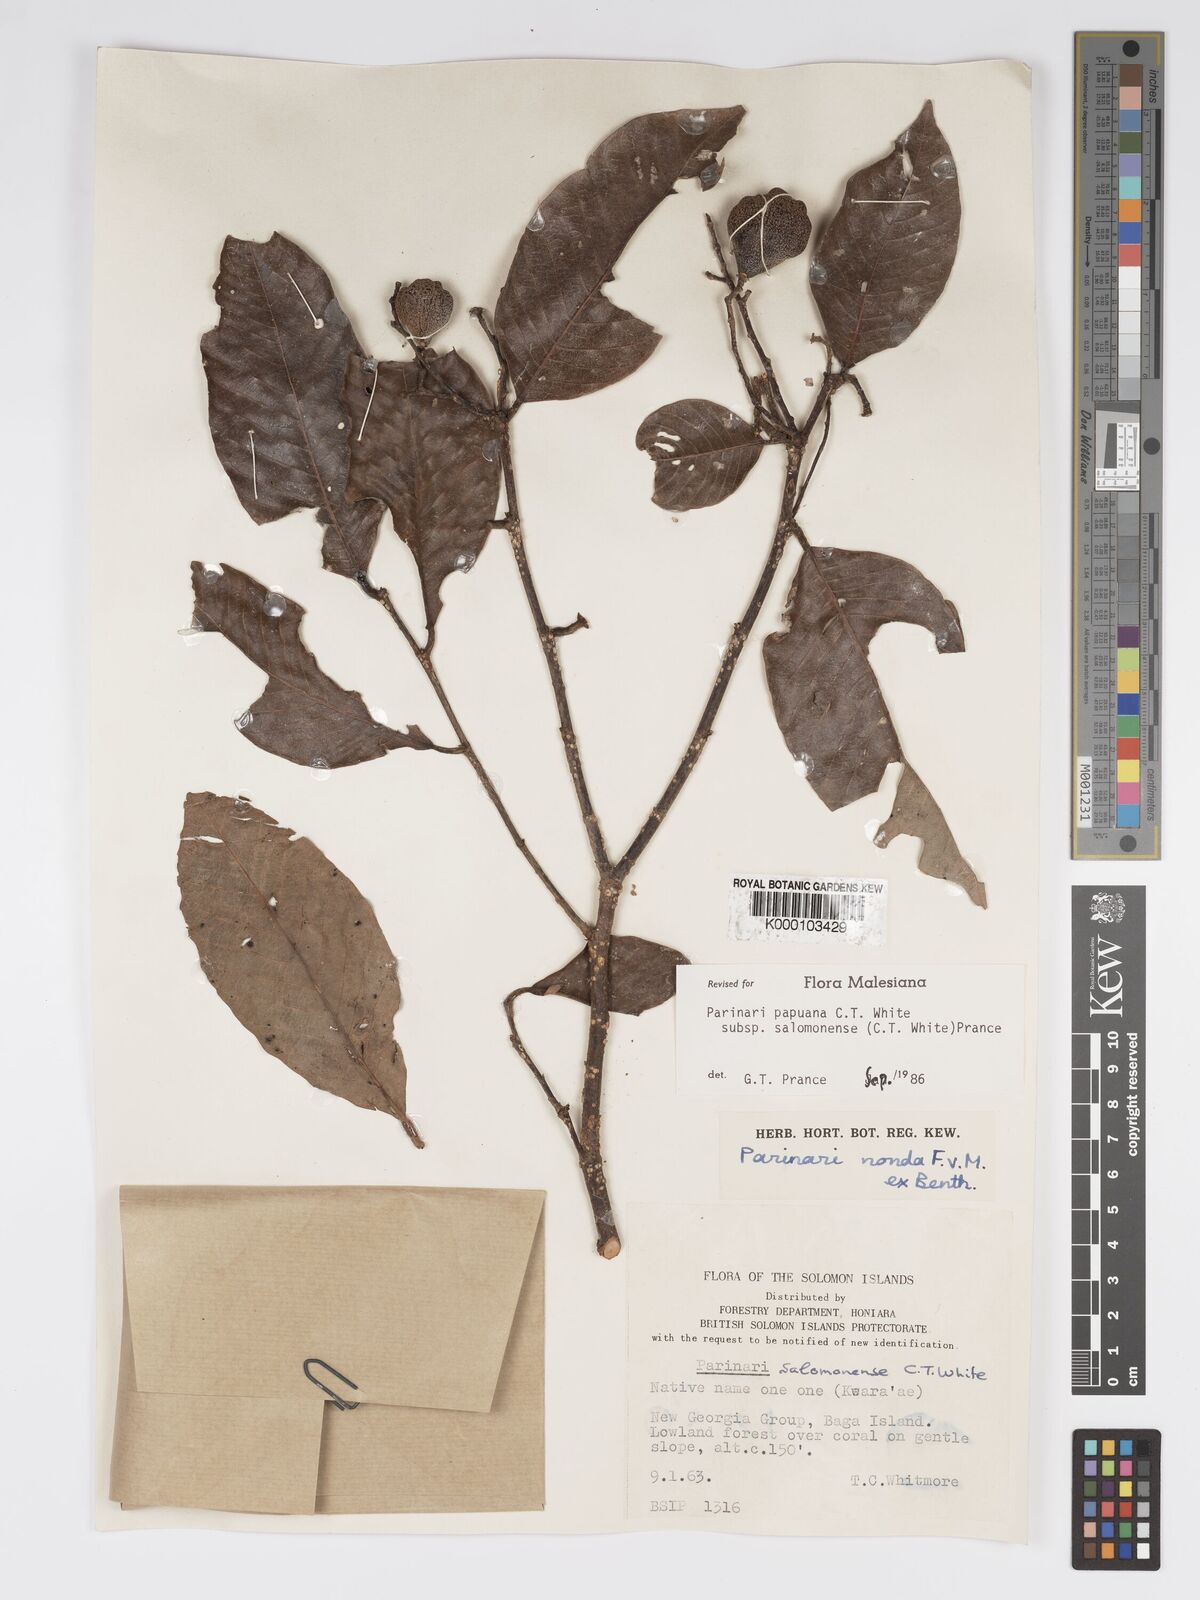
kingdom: Plantae
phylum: Tracheophyta
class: Magnoliopsida
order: Malpighiales
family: Chrysobalanaceae
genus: Parinari
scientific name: Parinari papuana
